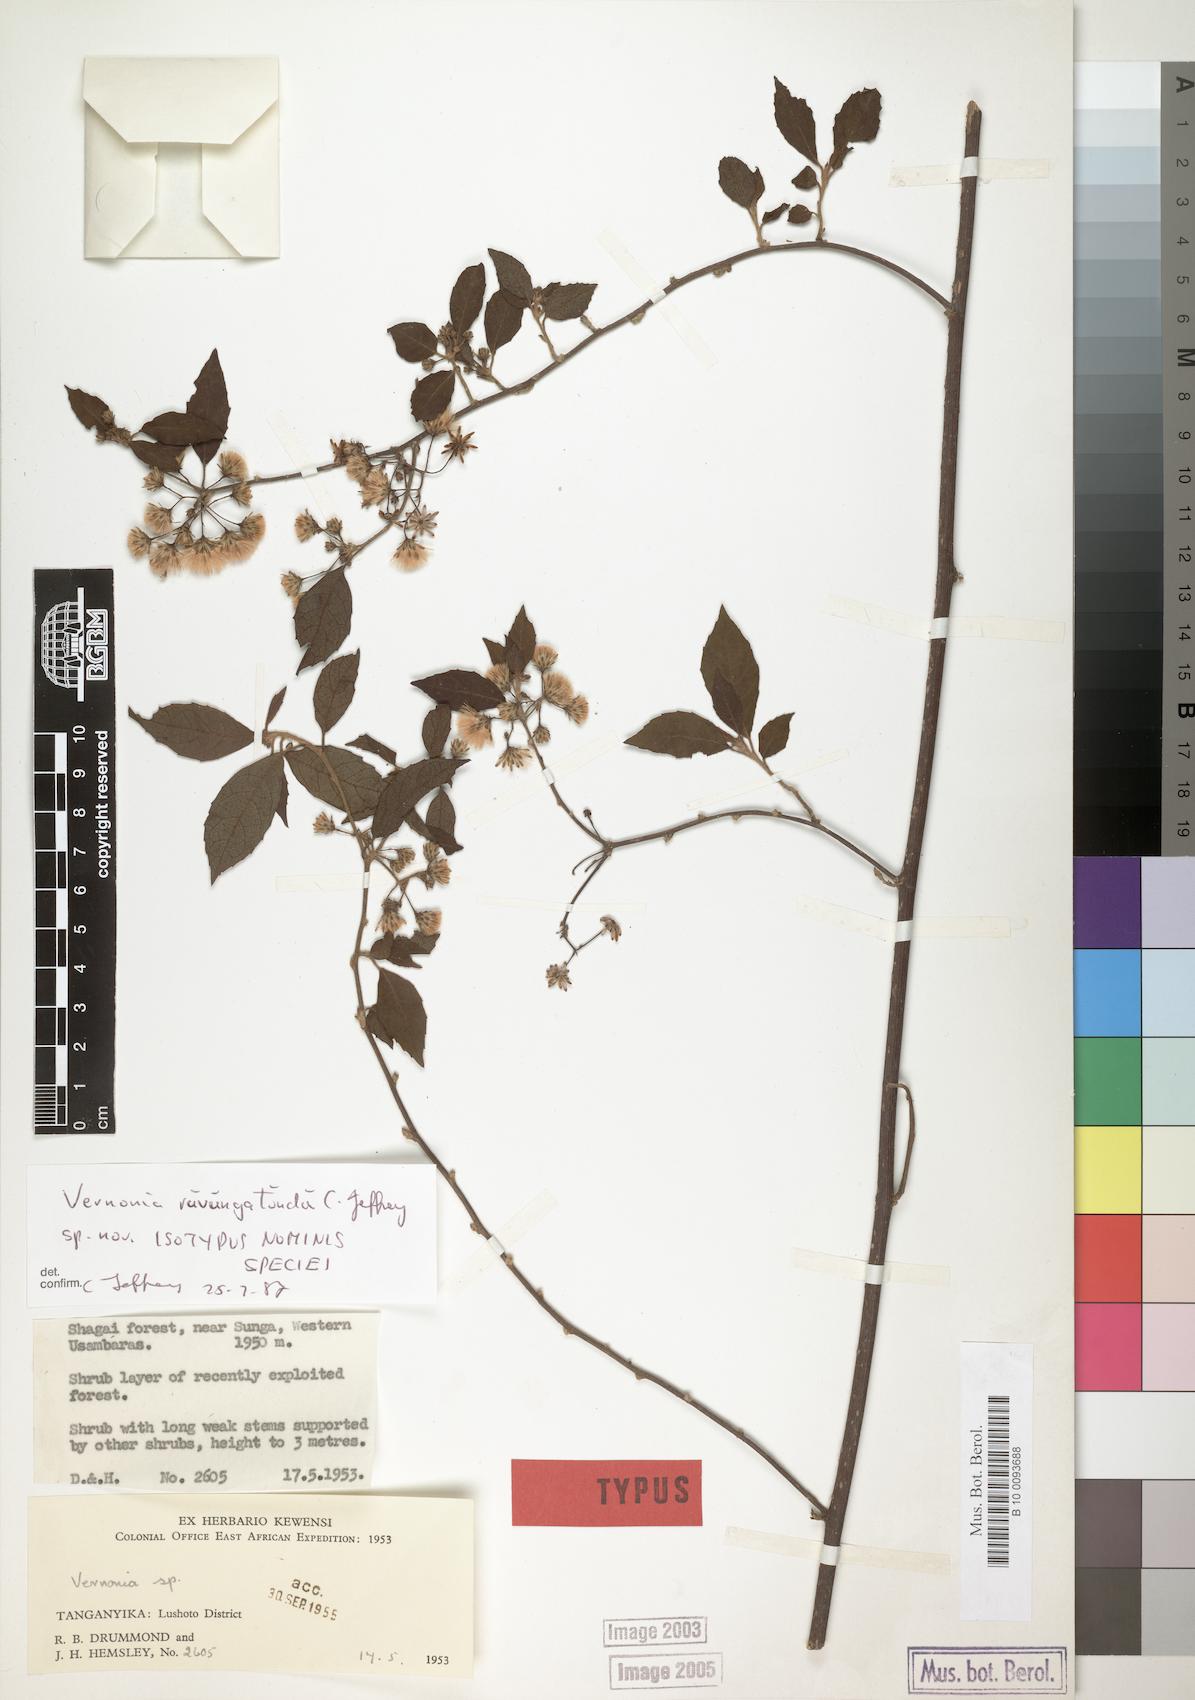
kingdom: Plantae
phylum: Tracheophyta
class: Magnoliopsida
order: Asterales
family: Asteraceae
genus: Vernonia
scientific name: Vernonia ruvungatundu
